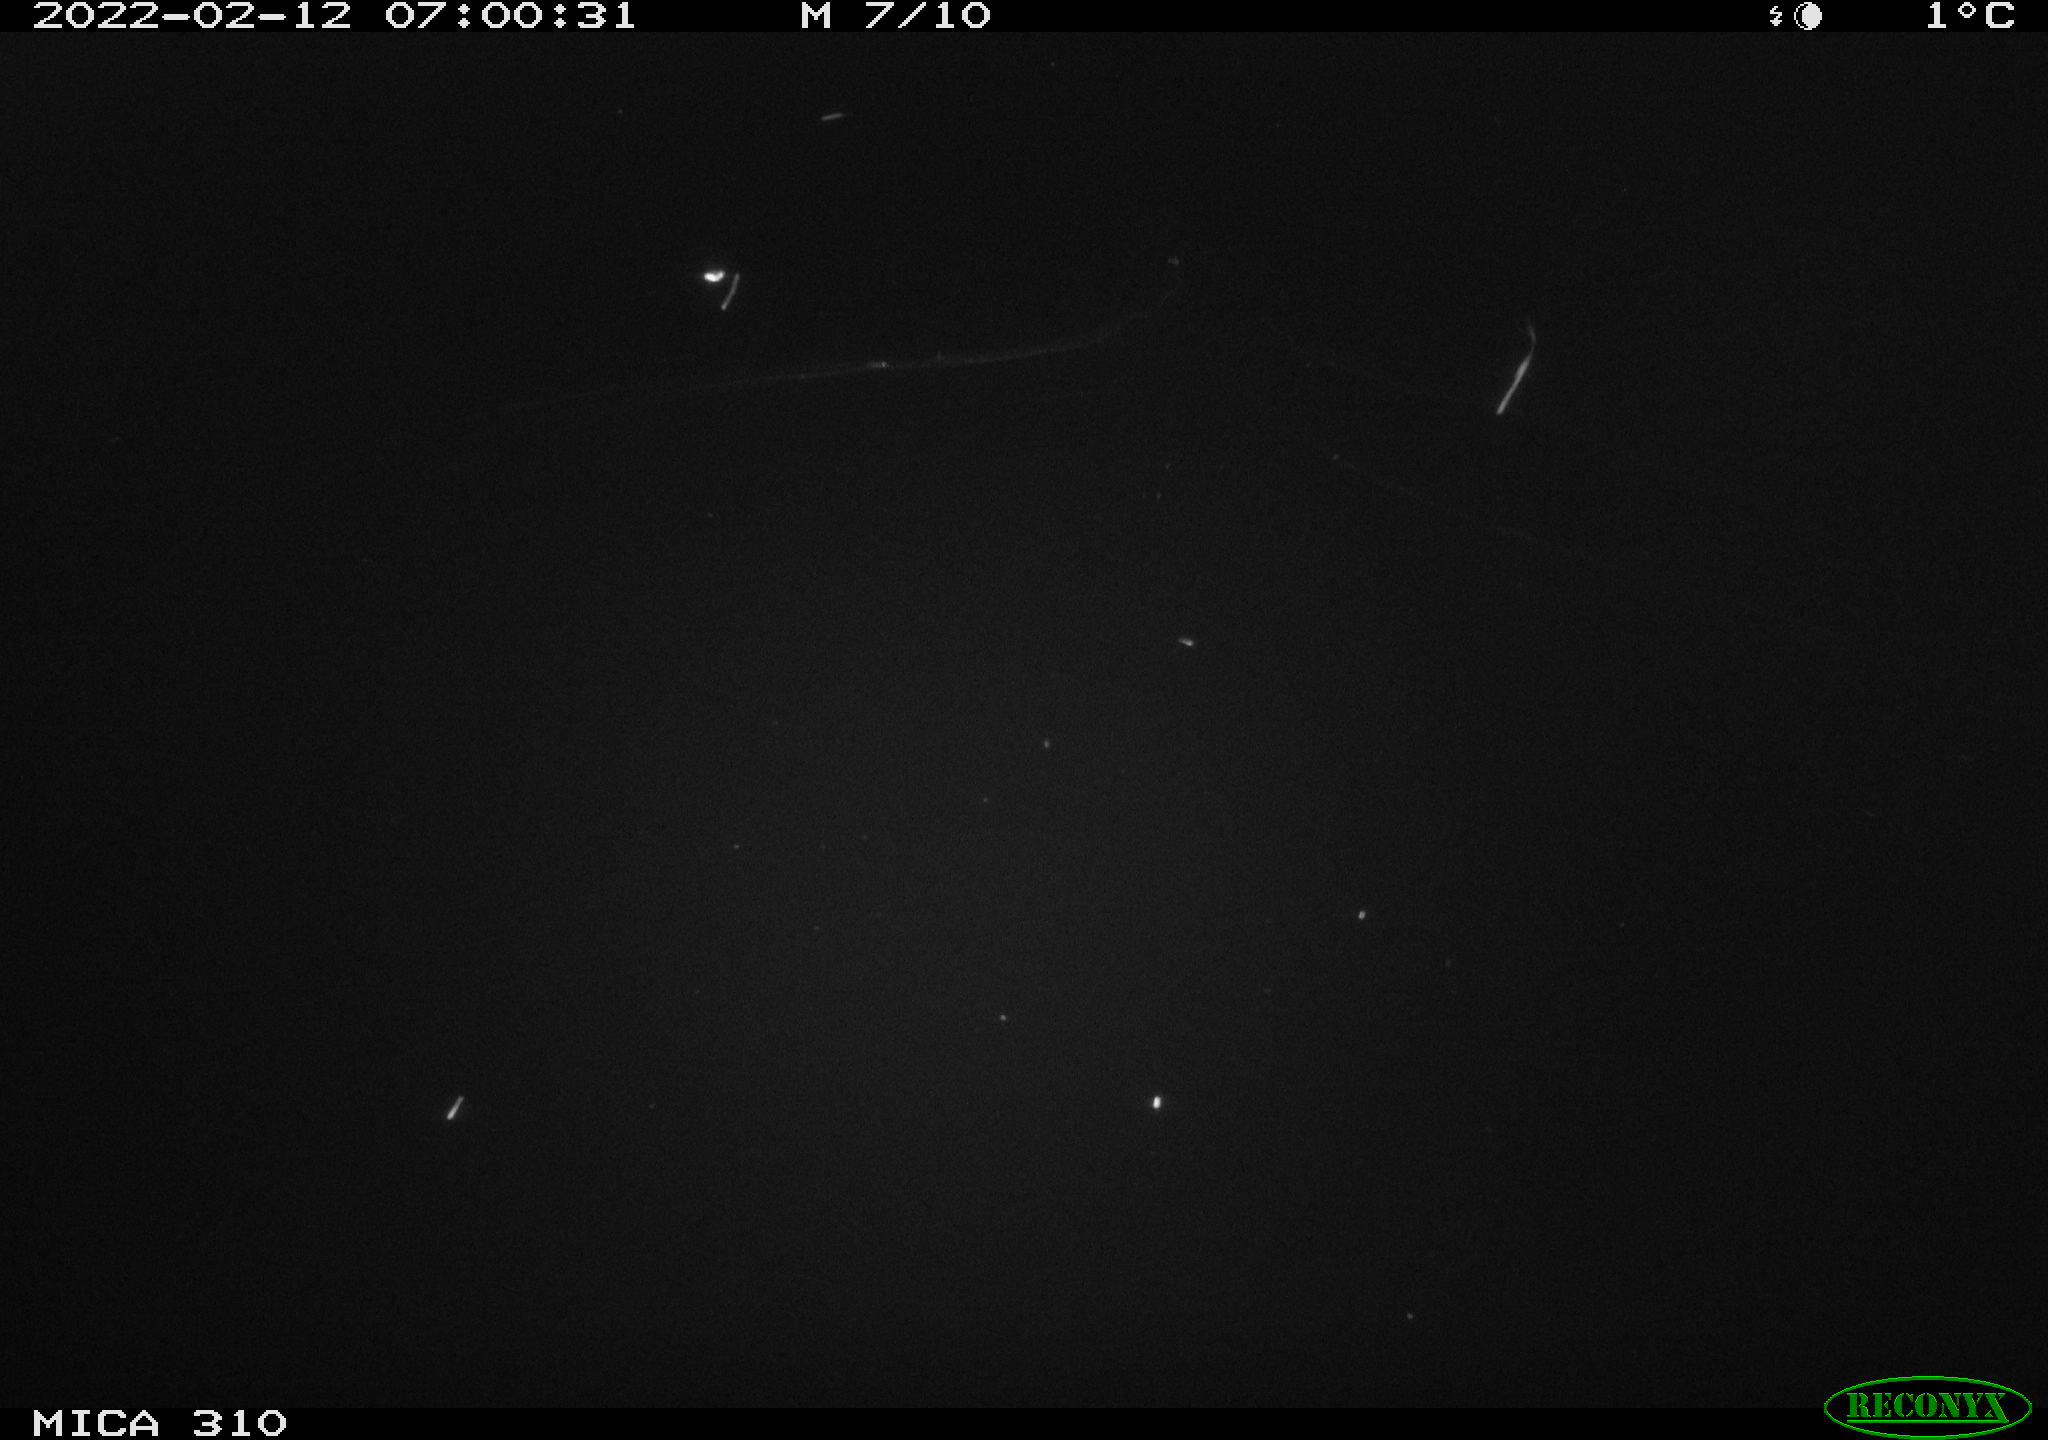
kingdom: Animalia
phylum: Chordata
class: Aves
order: Gruiformes
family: Rallidae
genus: Fulica
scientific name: Fulica atra
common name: Eurasian coot
